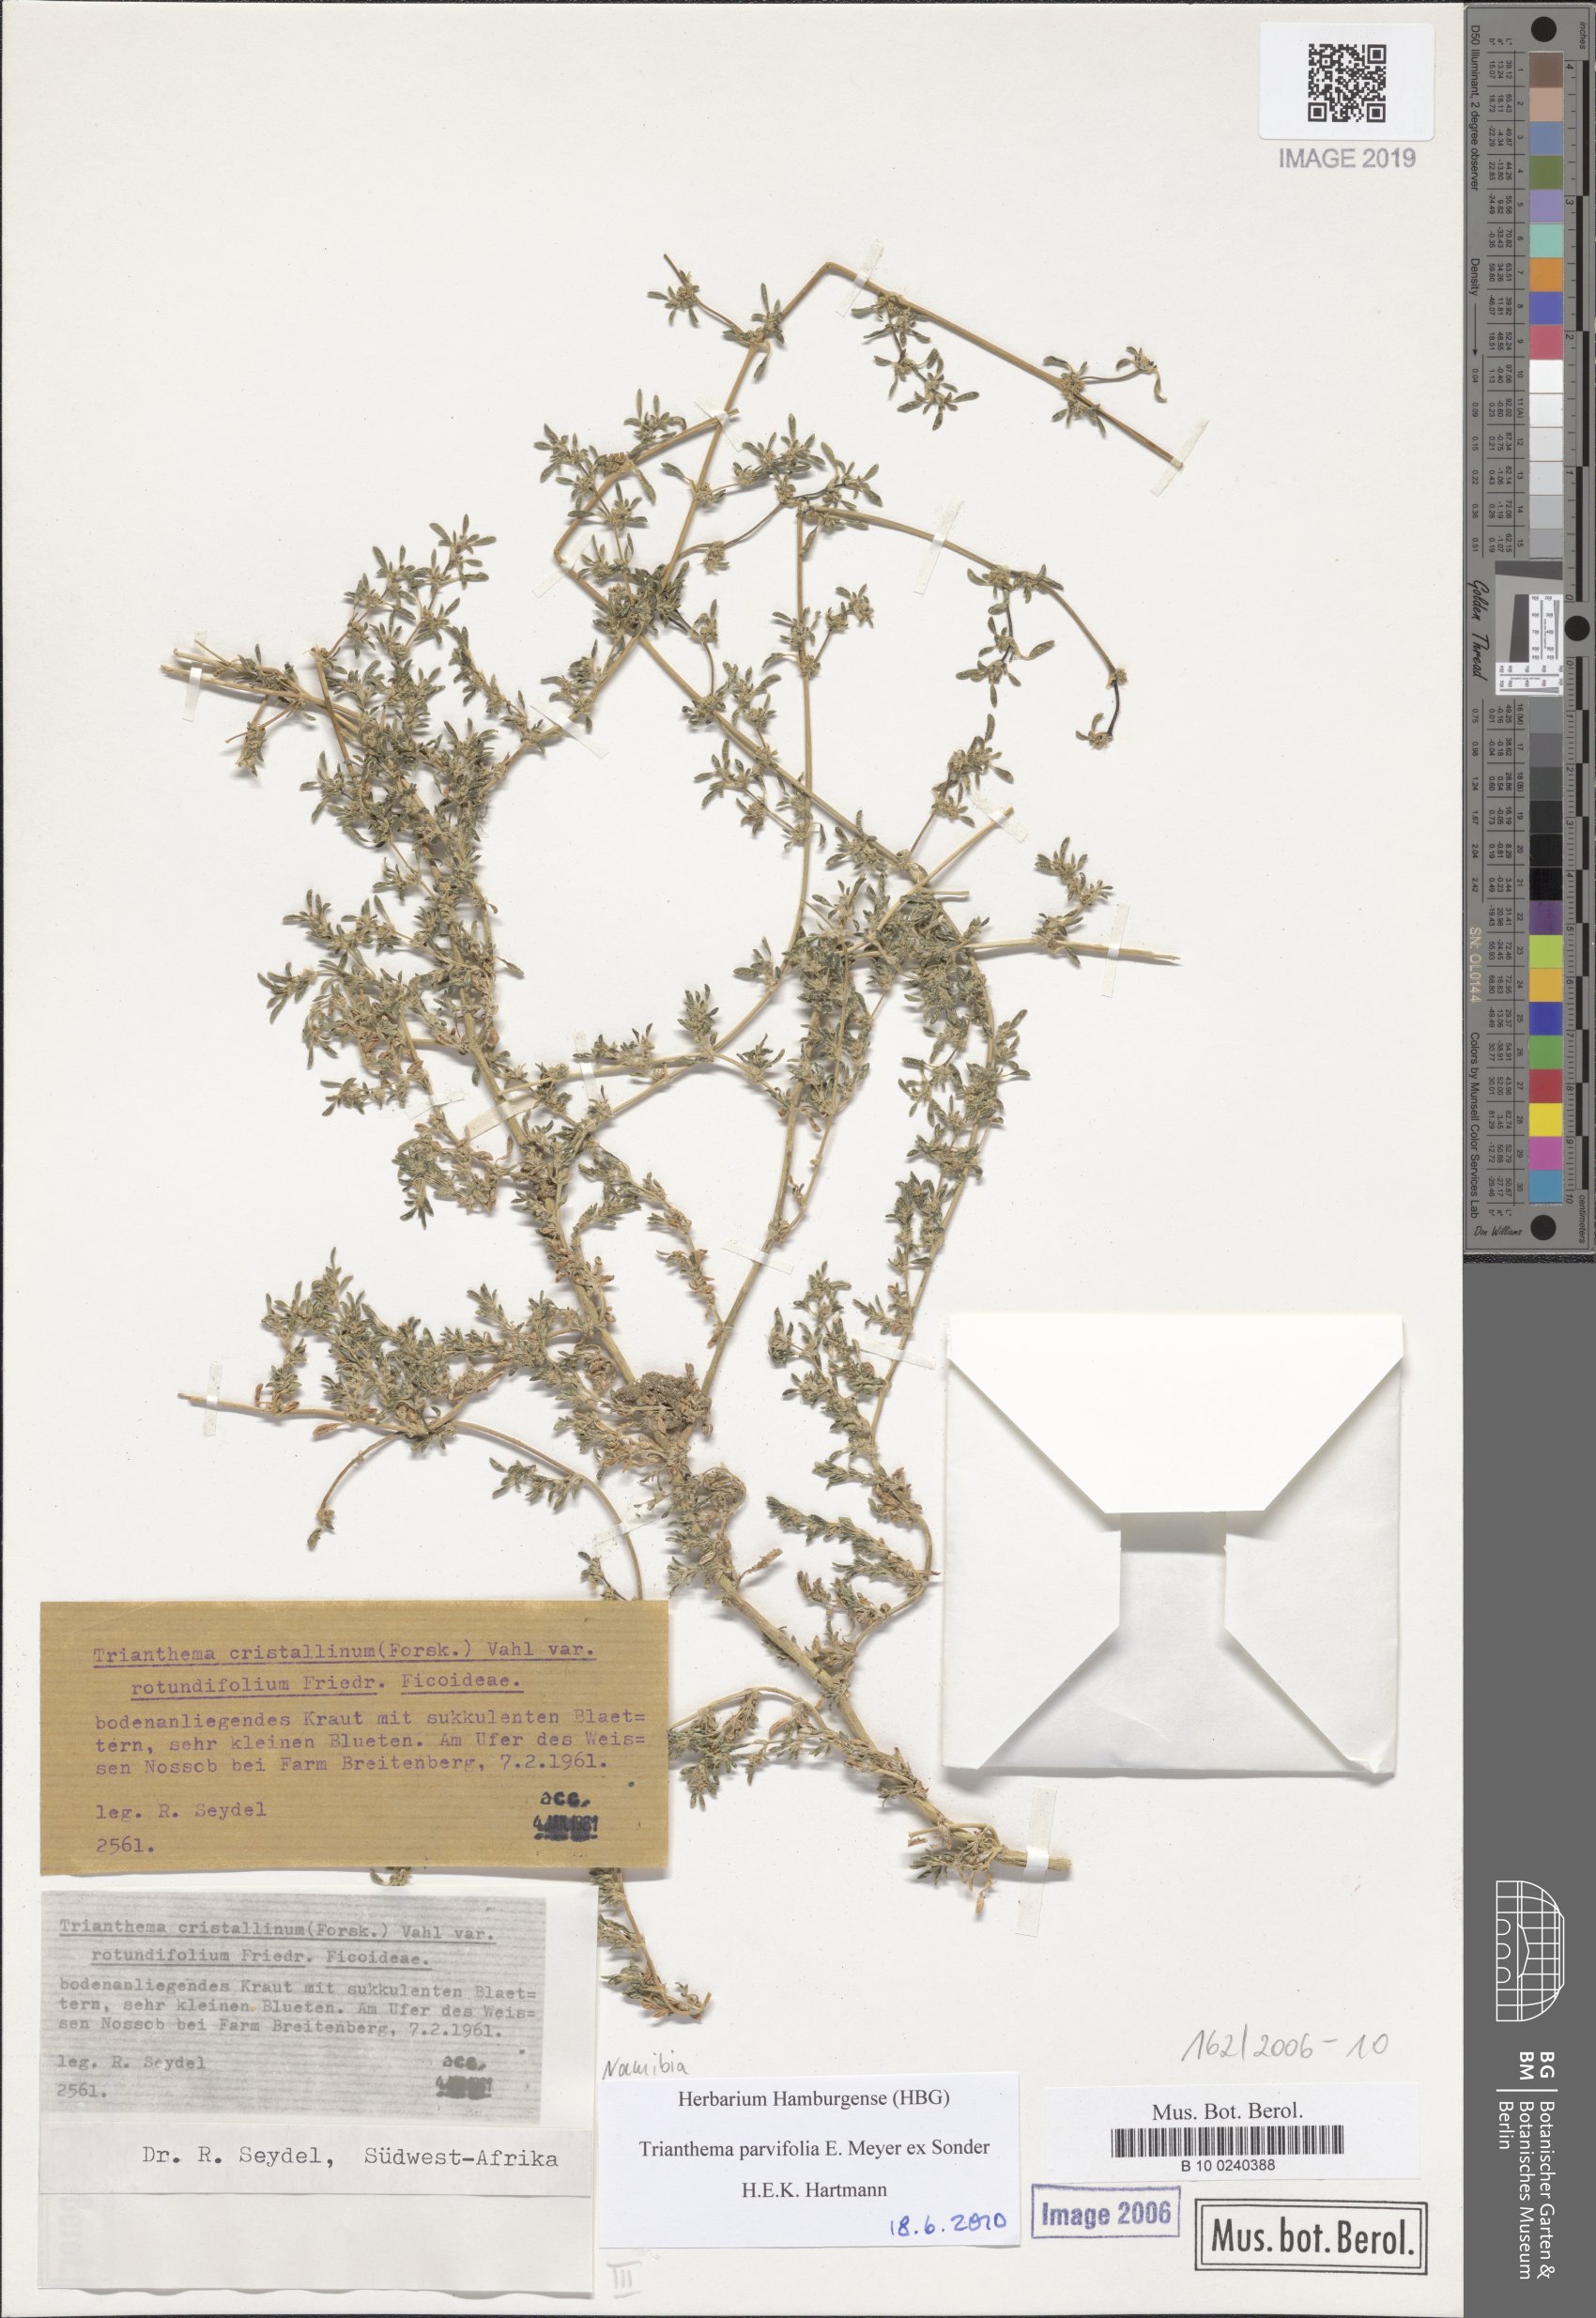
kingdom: Plantae
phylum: Tracheophyta
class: Magnoliopsida
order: Caryophyllales
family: Aizoaceae
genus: Trianthema
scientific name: Trianthema crystallinum
